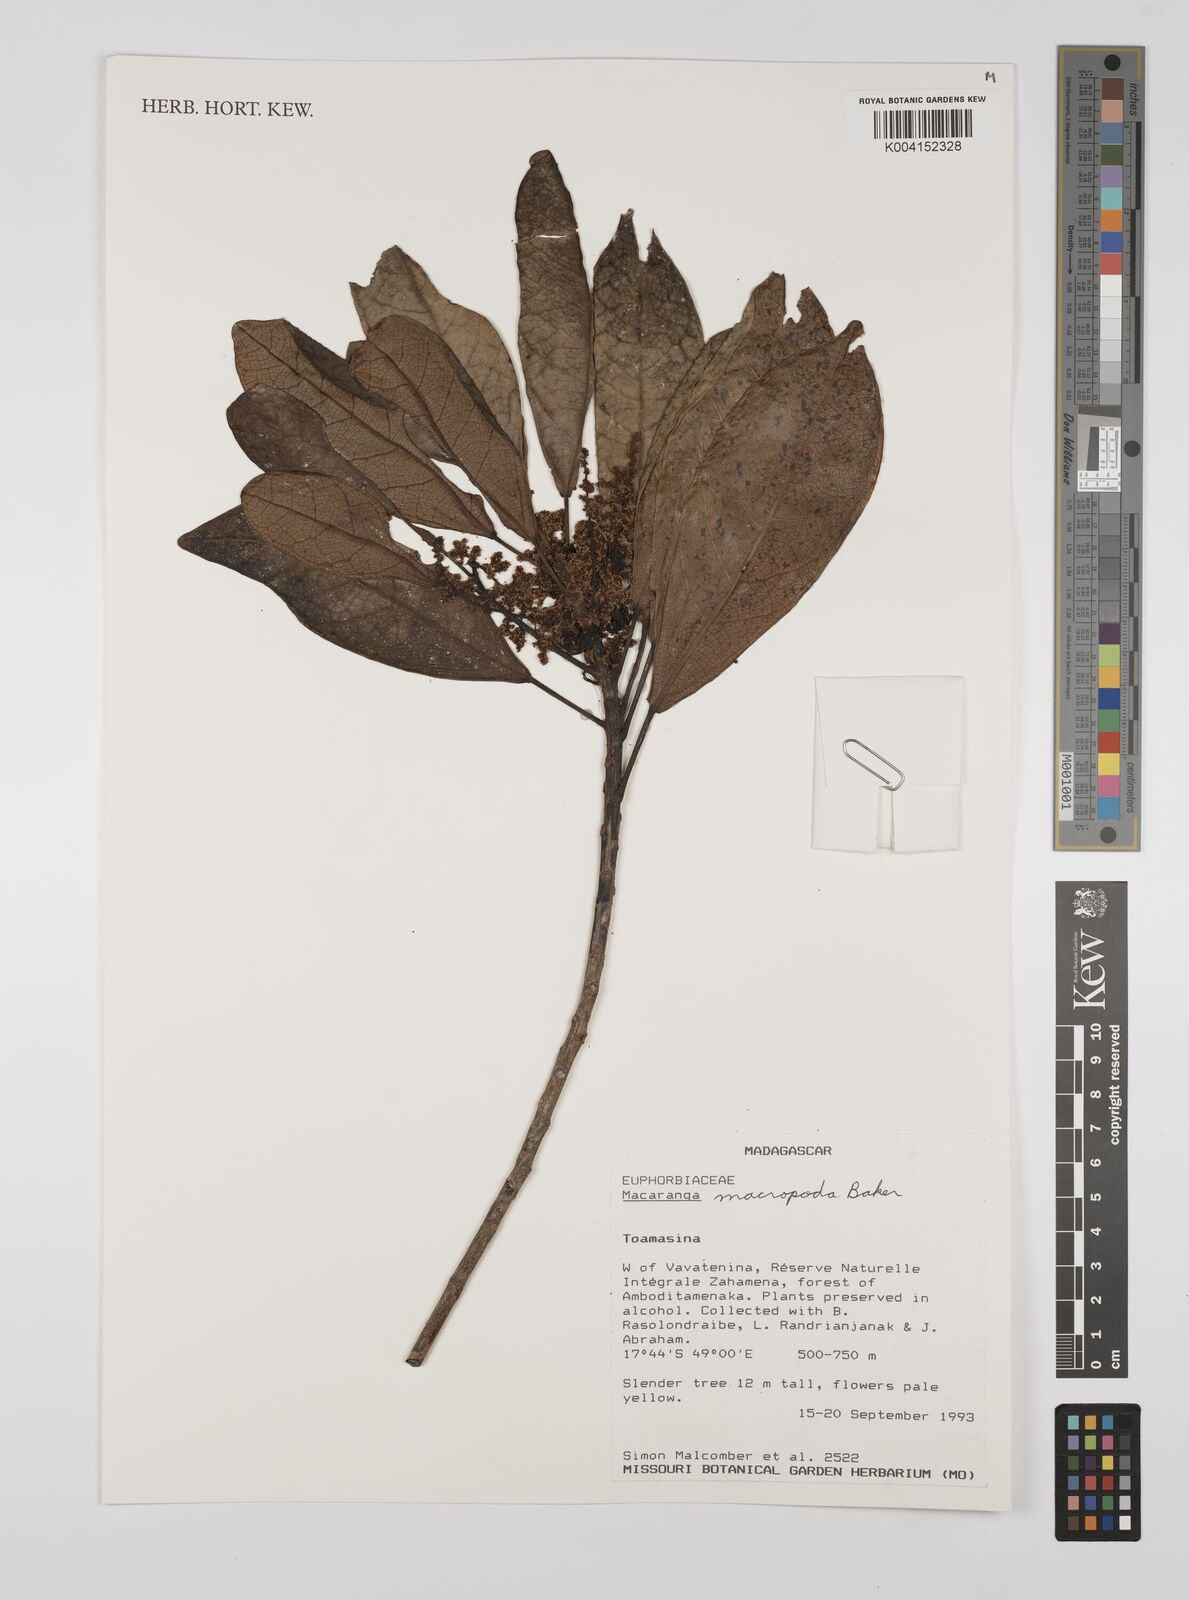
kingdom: Plantae
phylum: Tracheophyta
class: Magnoliopsida
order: Malpighiales
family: Euphorbiaceae
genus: Macaranga
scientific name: Macaranga macropoda
